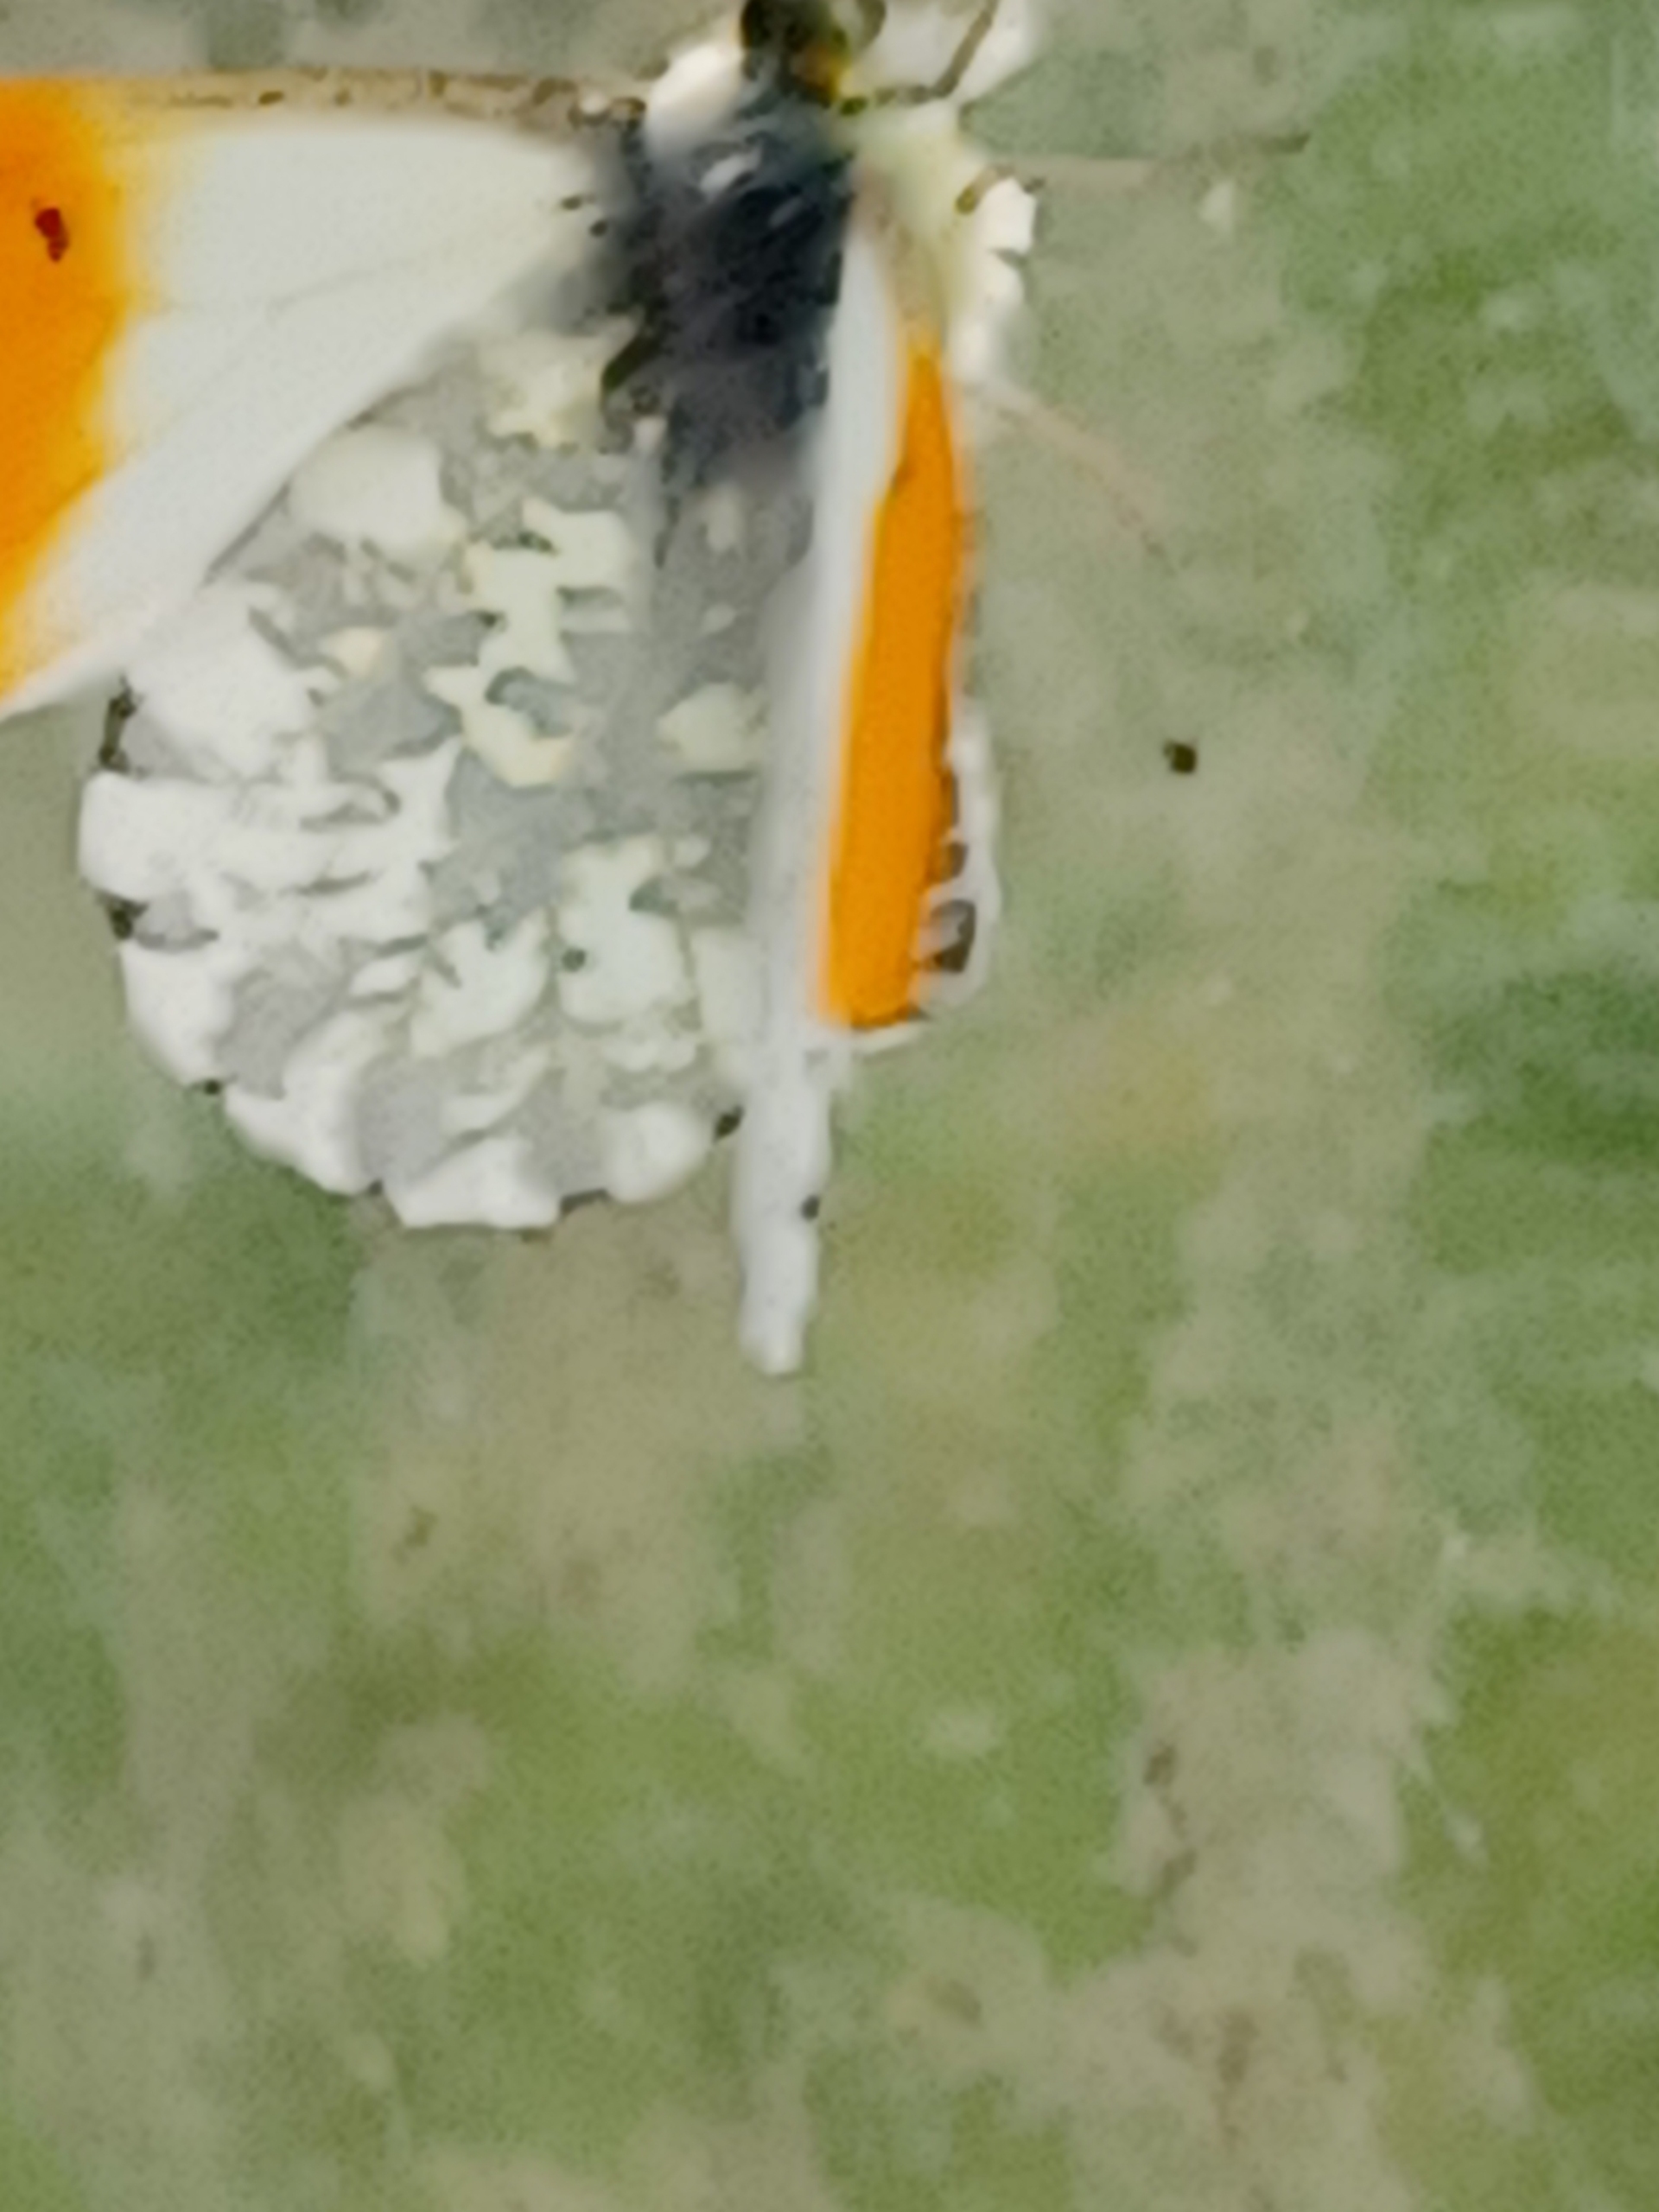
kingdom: Animalia
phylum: Arthropoda
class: Insecta
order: Lepidoptera
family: Pieridae
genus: Anthocharis
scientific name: Anthocharis cardamines
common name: Aurora
